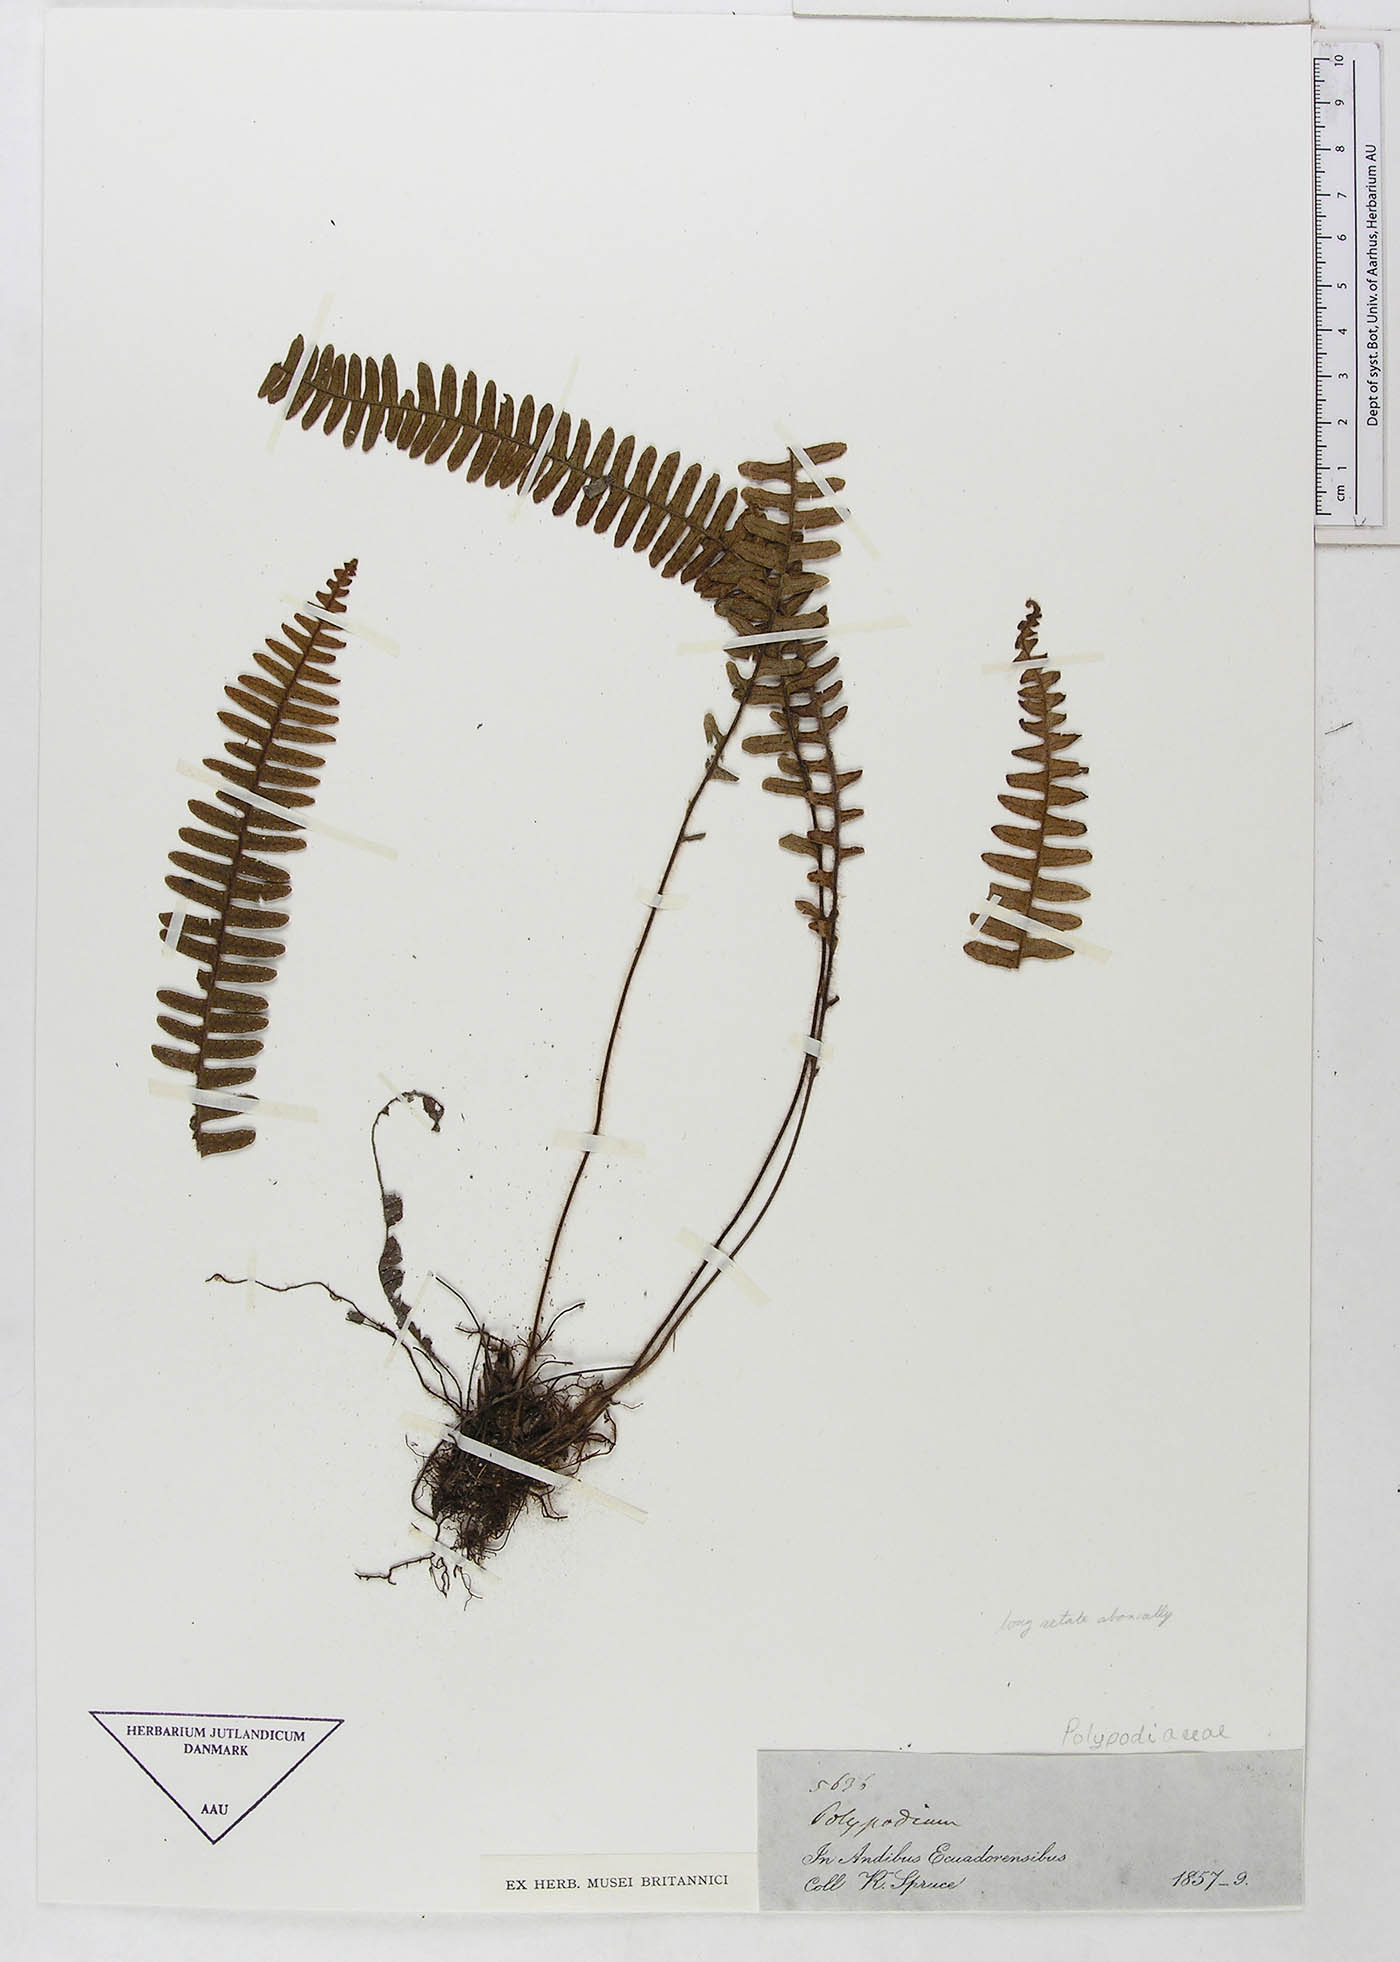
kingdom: Plantae
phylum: Tracheophyta
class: Polypodiopsida
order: Polypodiales
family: Polypodiaceae
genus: Polypodium
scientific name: Polypodium
